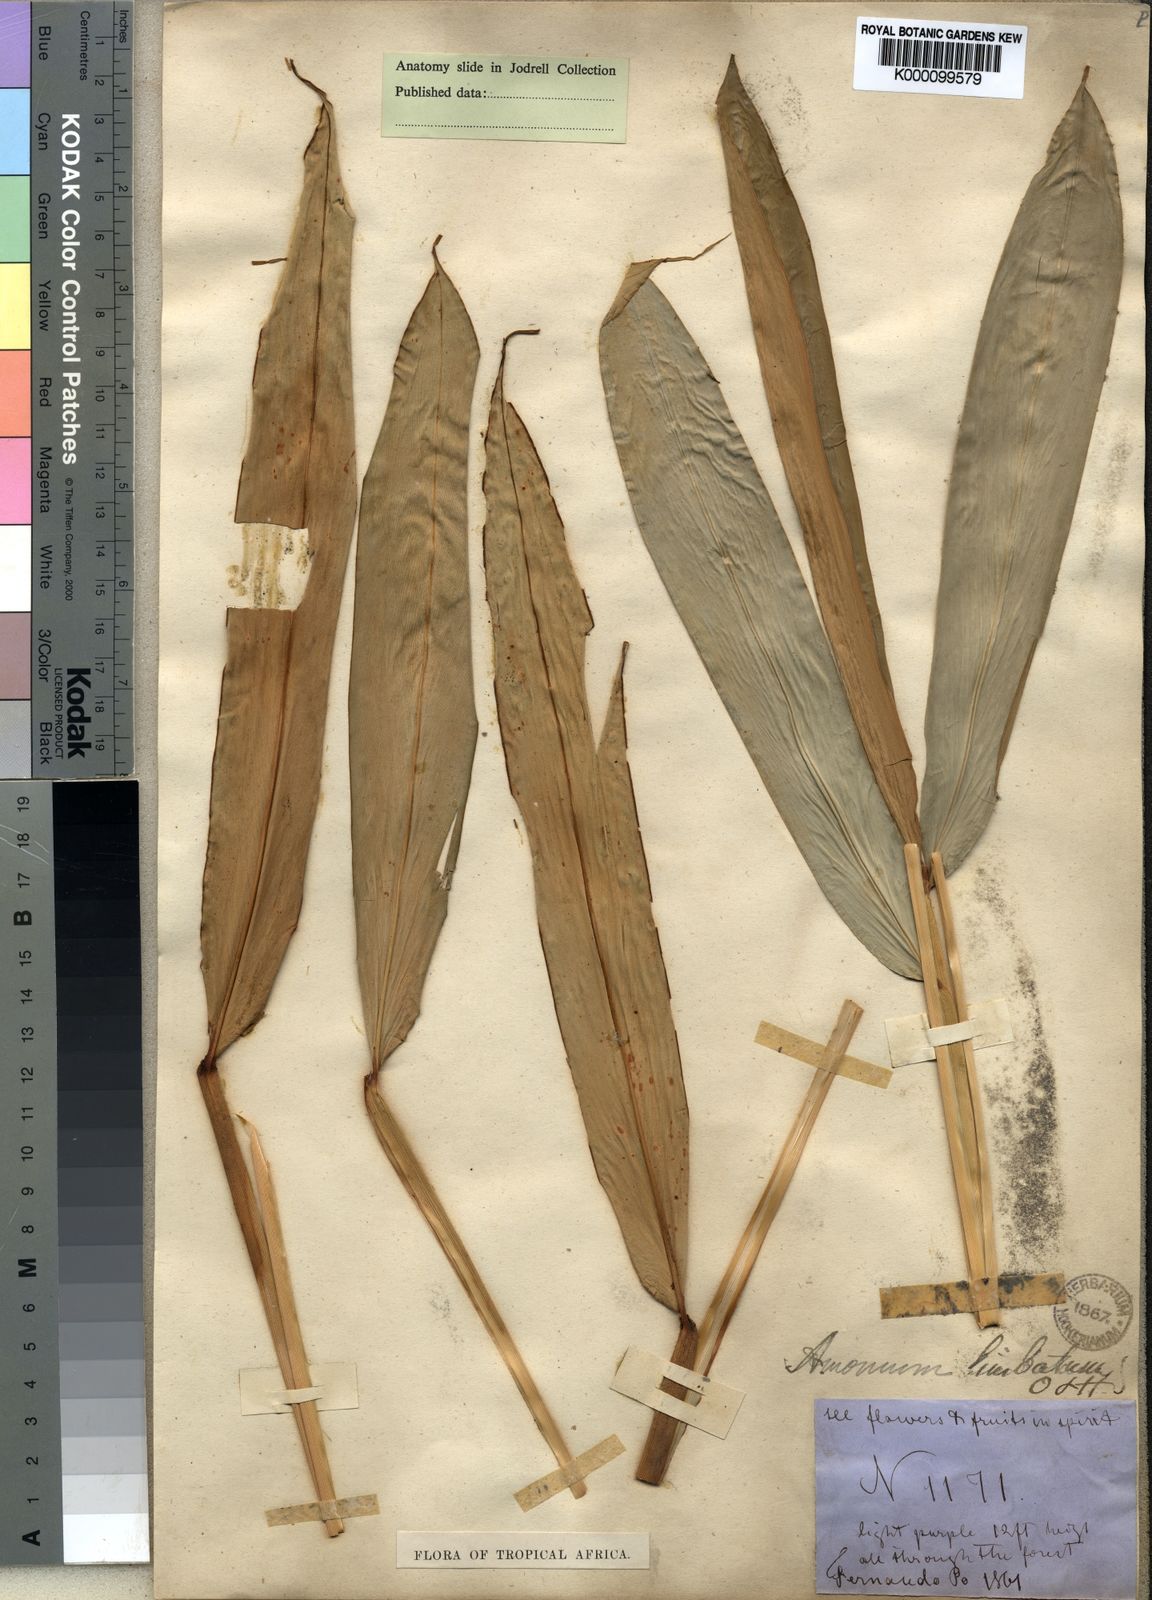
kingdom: Plantae
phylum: Tracheophyta
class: Liliopsida
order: Zingiberales
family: Zingiberaceae
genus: Aframomum
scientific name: Aframomum limbatum
